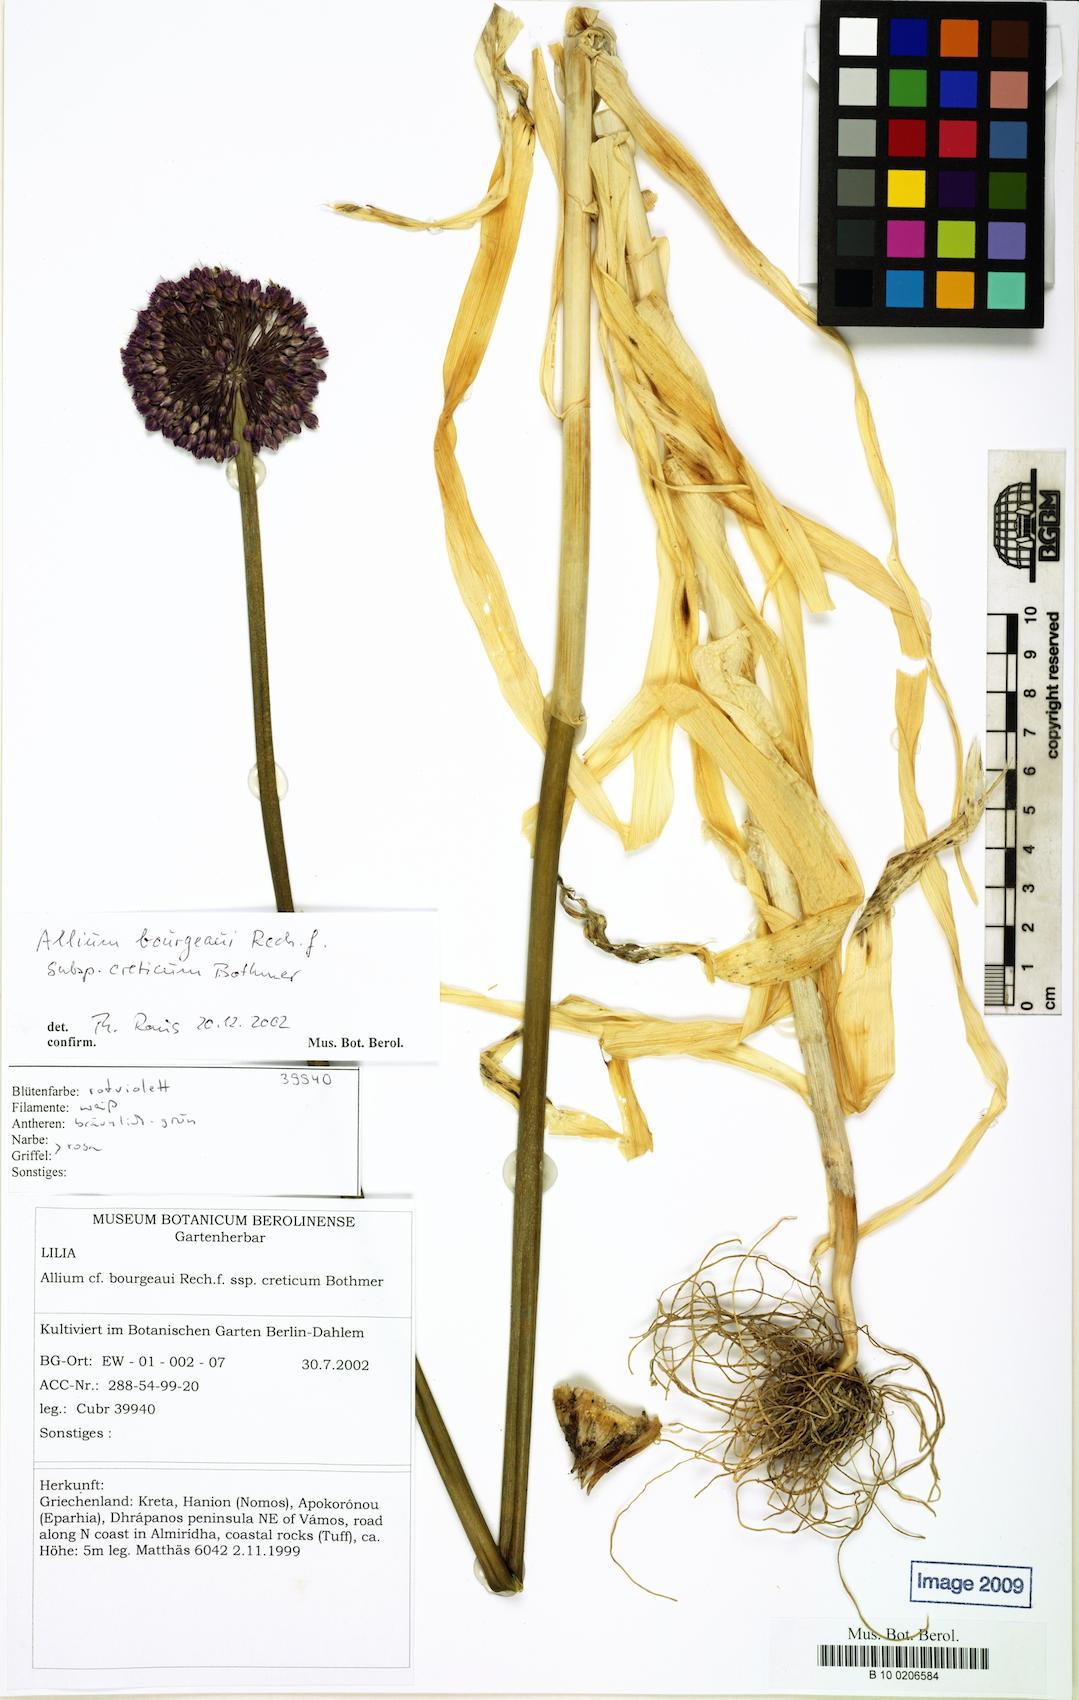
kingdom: Plantae
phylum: Tracheophyta
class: Liliopsida
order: Liliales
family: Liliaceae
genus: Allium
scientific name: Allium
